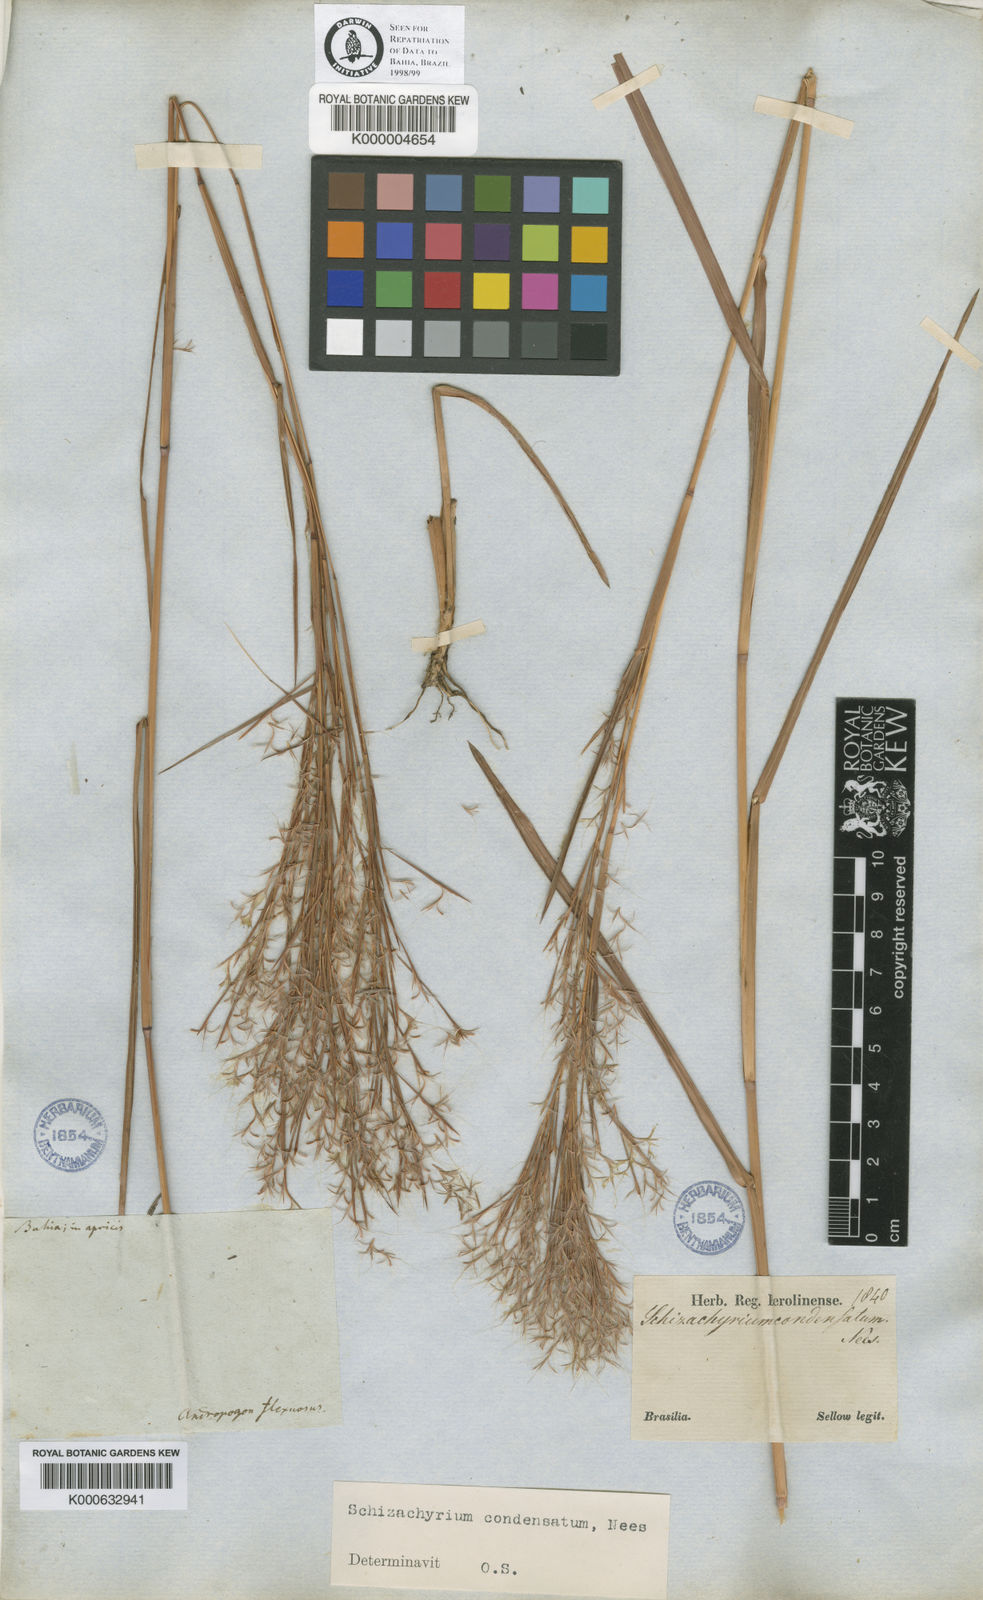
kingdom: Plantae
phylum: Tracheophyta
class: Liliopsida
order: Poales
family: Poaceae
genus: Schizachyrium
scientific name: Schizachyrium condensatum
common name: Bush beardgrass
